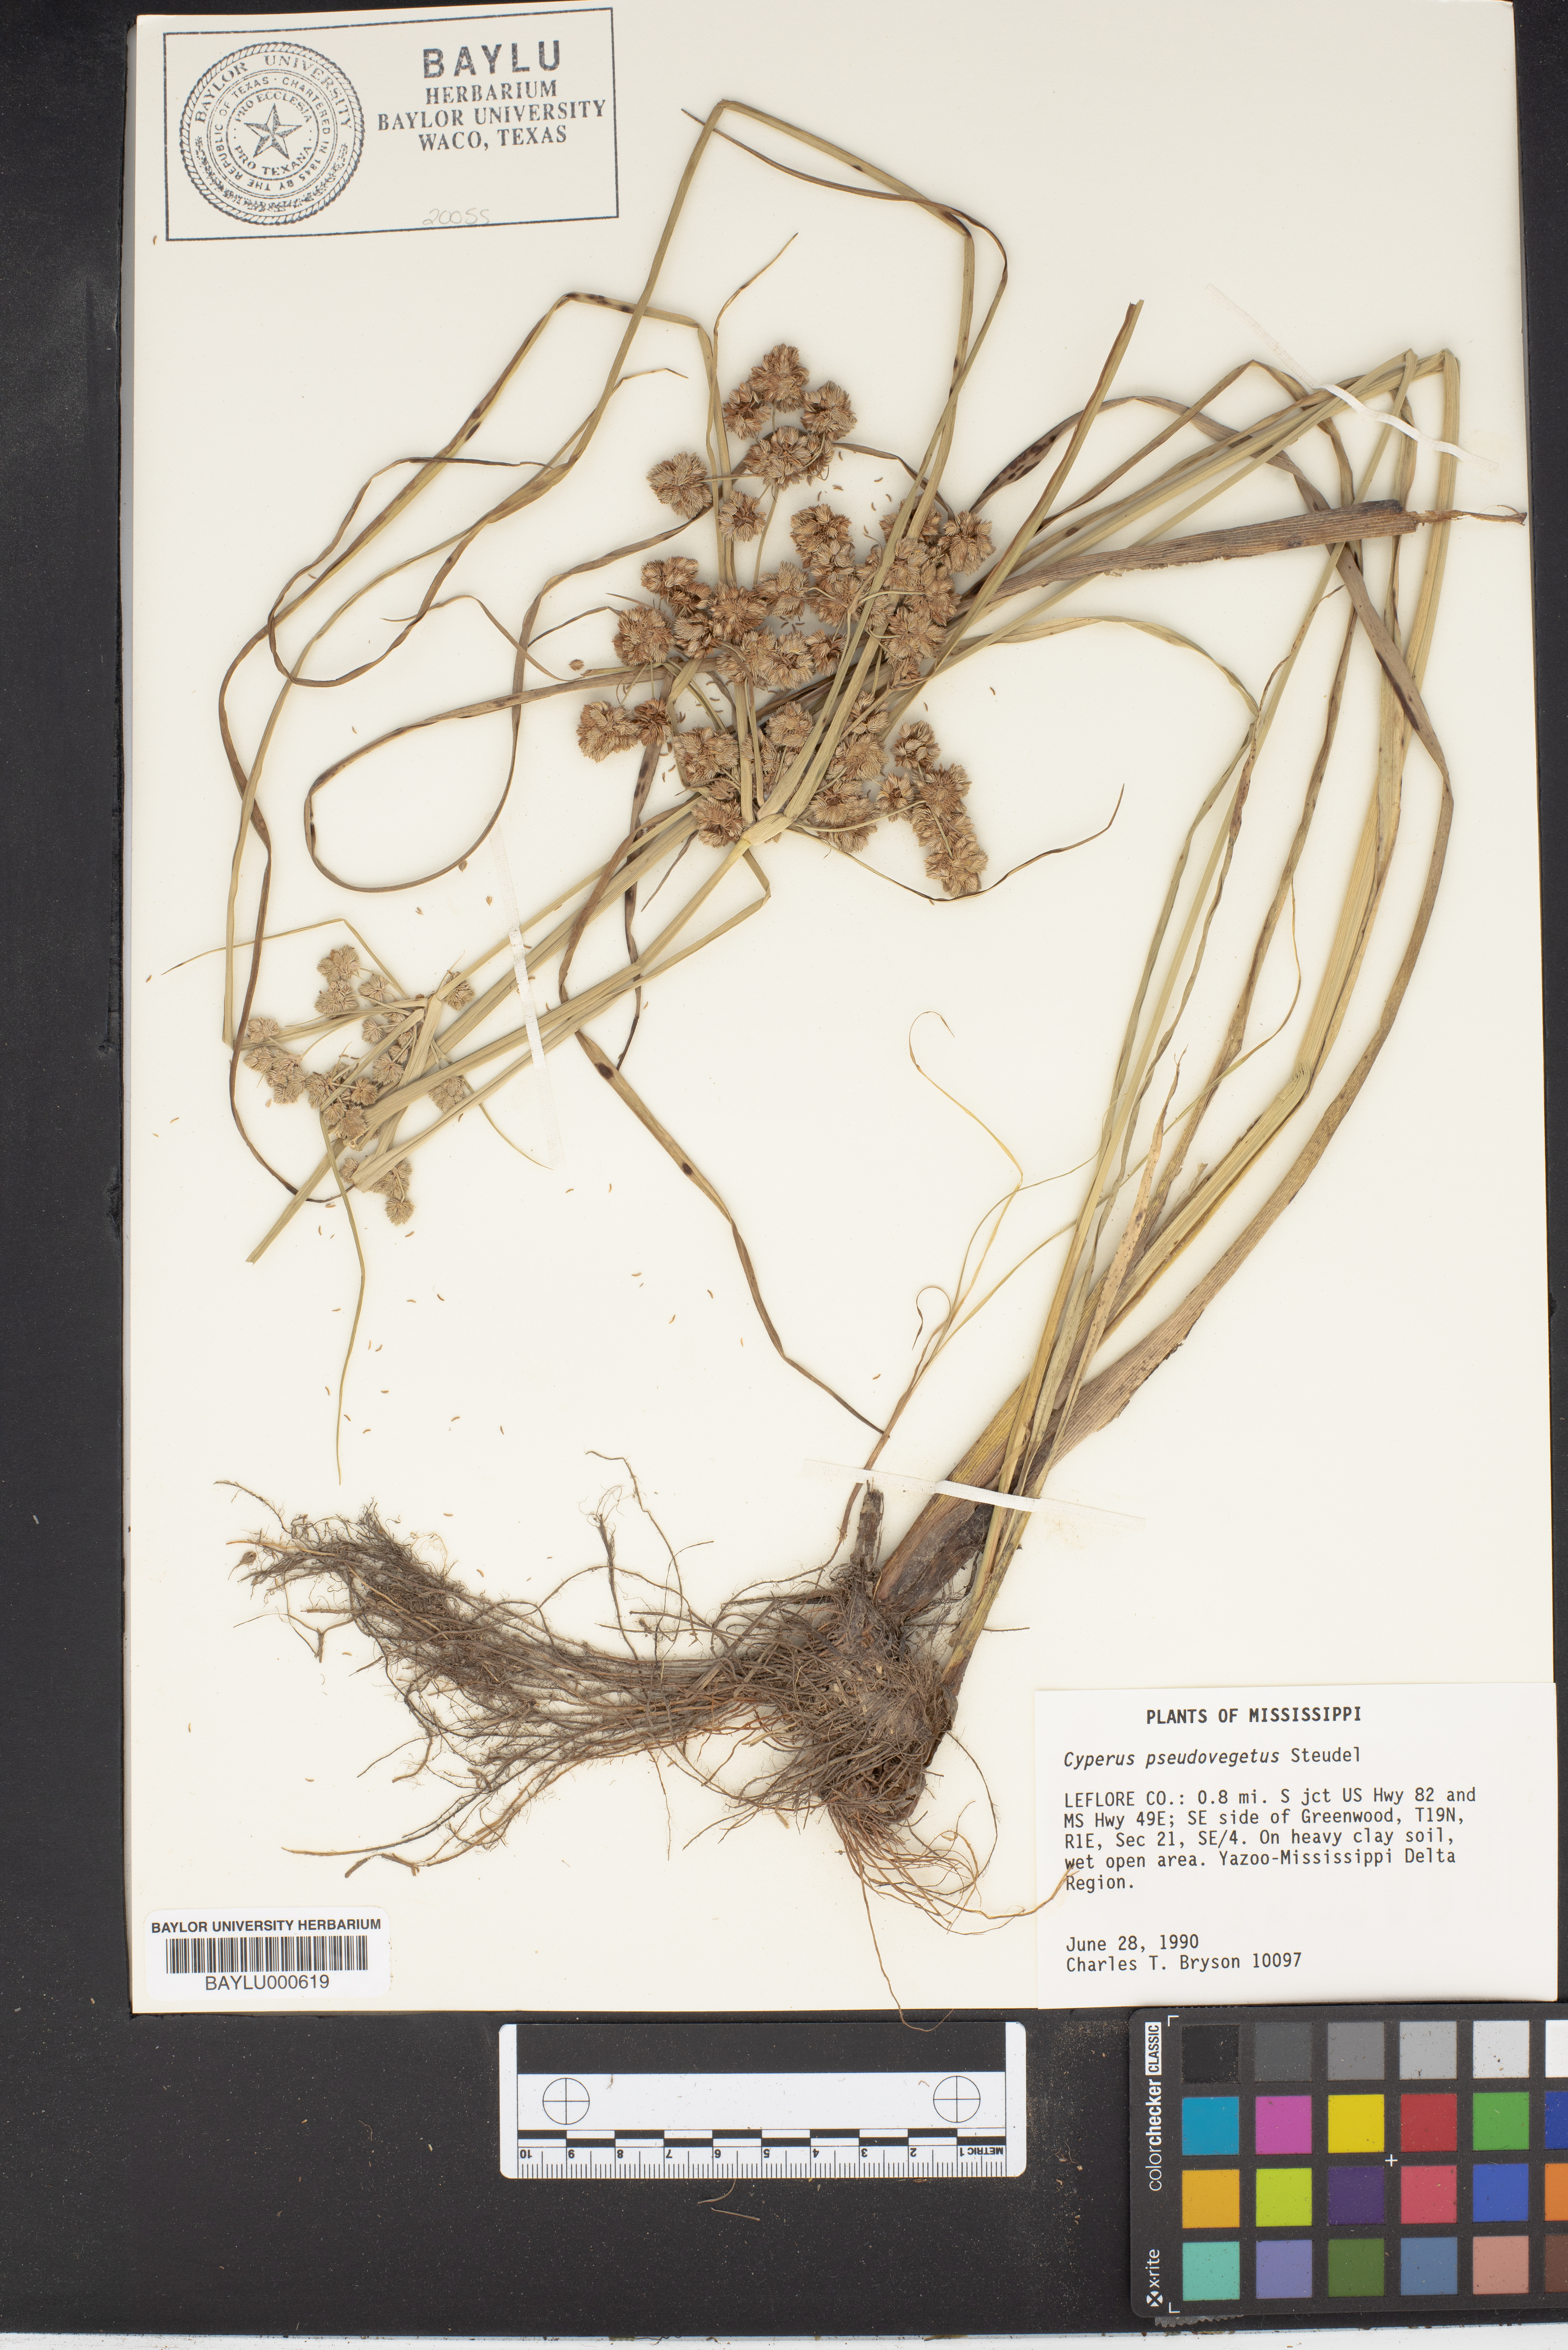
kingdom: Plantae
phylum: Tracheophyta
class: Liliopsida
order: Poales
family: Cyperaceae
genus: Cyperus
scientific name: Cyperus pseudovegetus
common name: Marsh flat sedge
